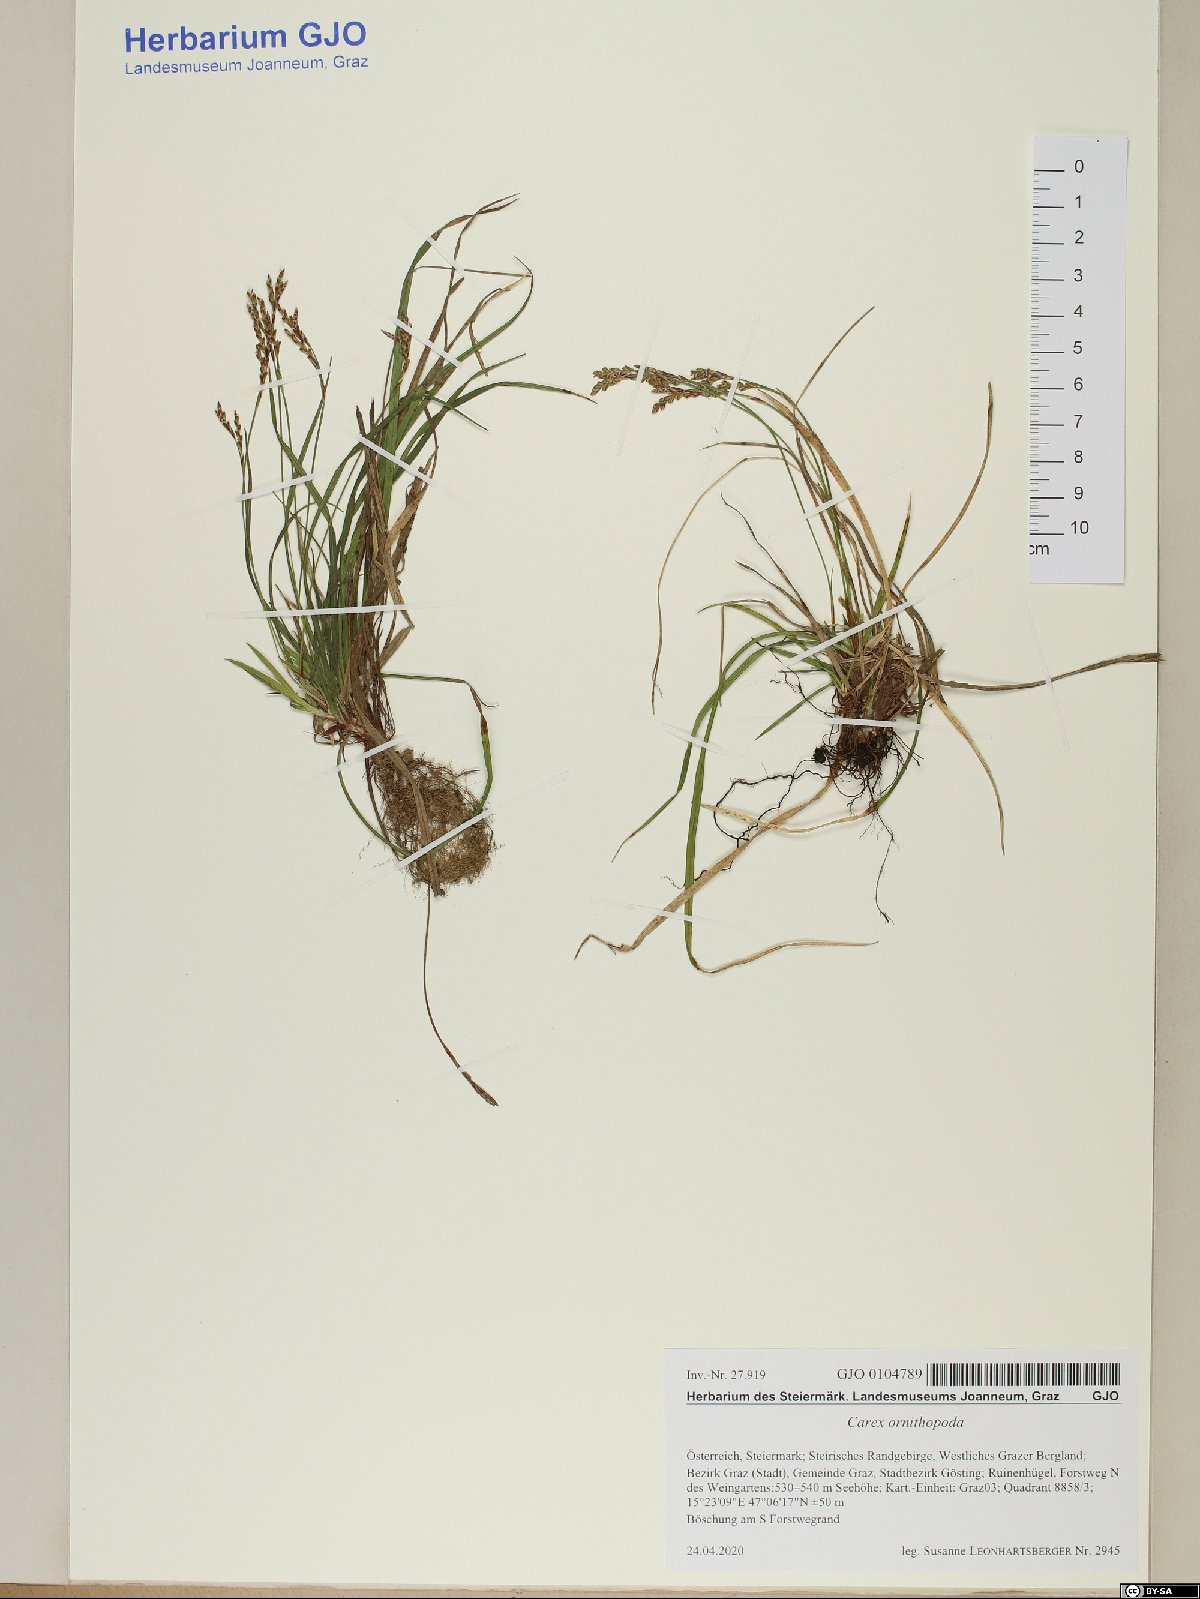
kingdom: Plantae
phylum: Tracheophyta
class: Liliopsida
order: Poales
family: Cyperaceae
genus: Carex
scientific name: Carex ornithopoda
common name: Bird's-foot sedge
